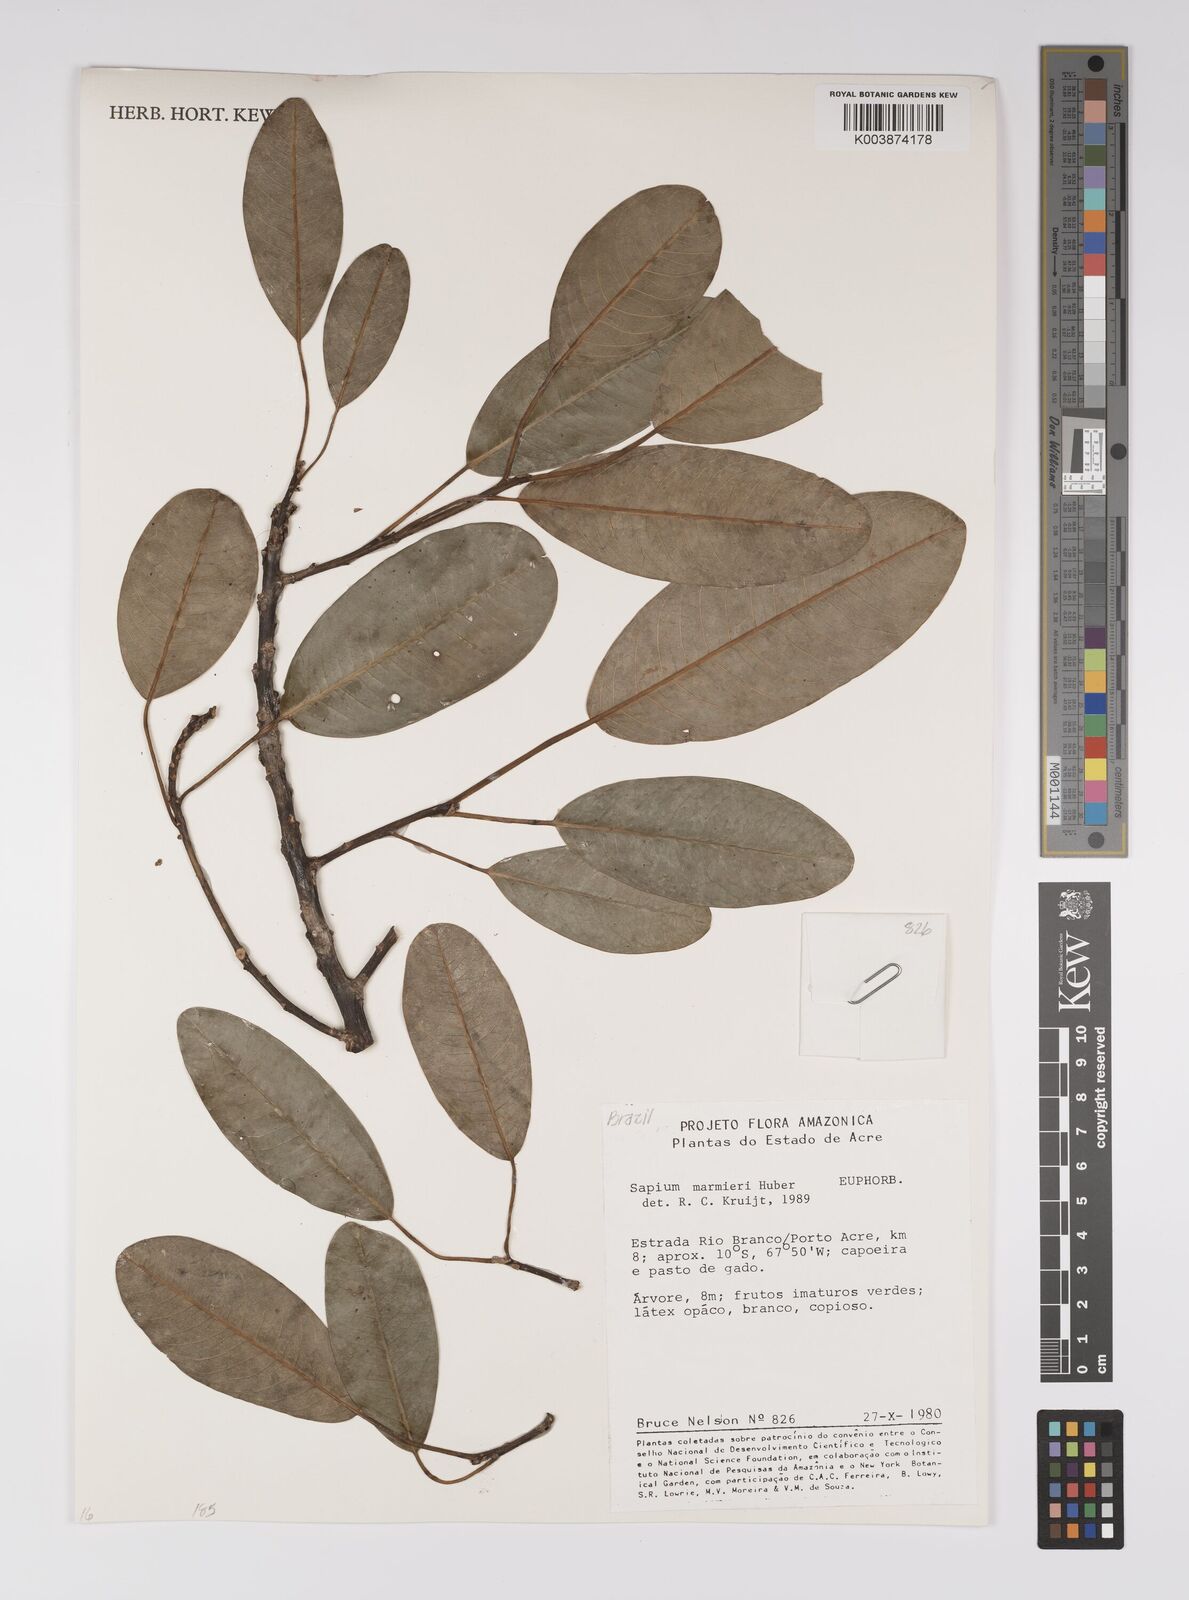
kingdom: Plantae
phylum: Tracheophyta
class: Magnoliopsida
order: Malpighiales
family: Euphorbiaceae
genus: Sapium
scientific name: Sapium marmieri
